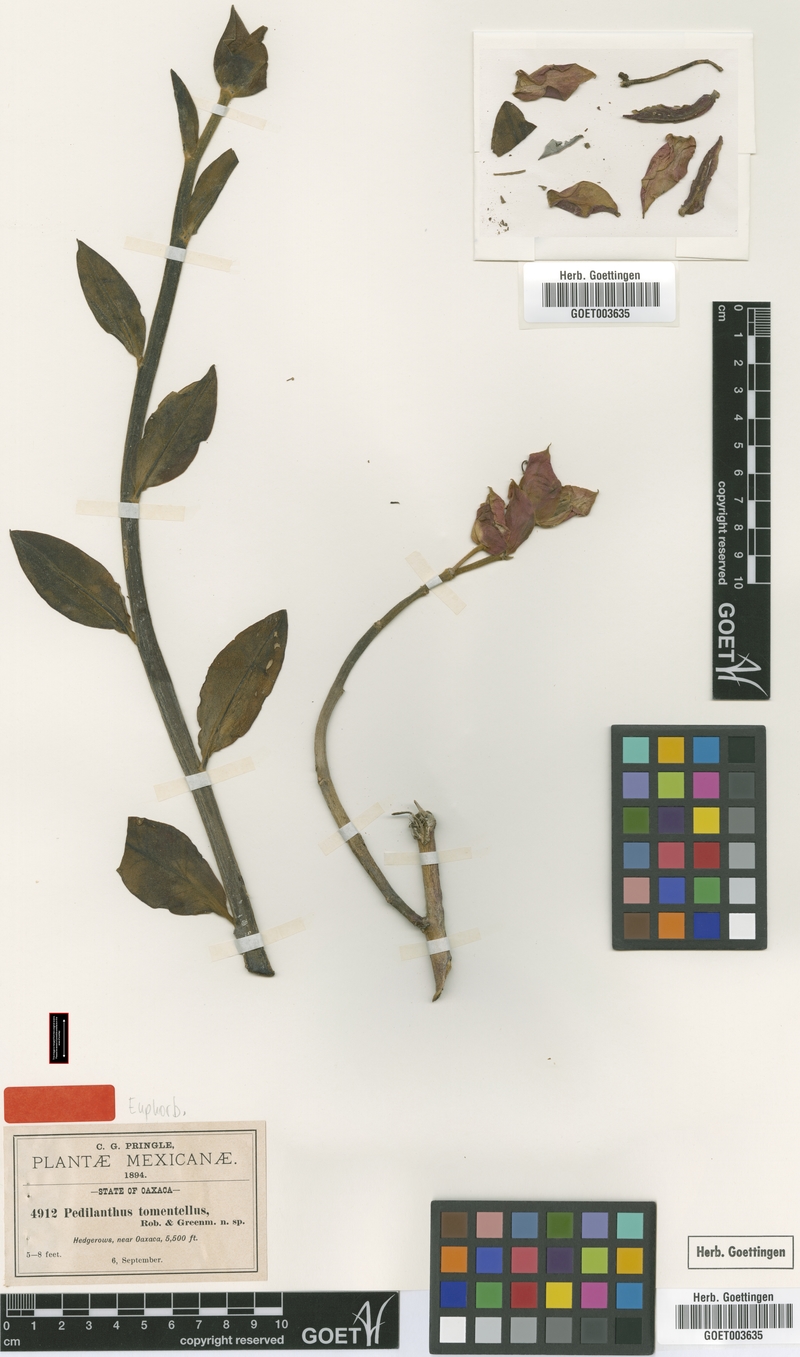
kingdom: Plantae
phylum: Tracheophyta
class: Magnoliopsida
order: Malpighiales
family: Euphorbiaceae
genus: Euphorbia
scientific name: Euphorbia cyri
